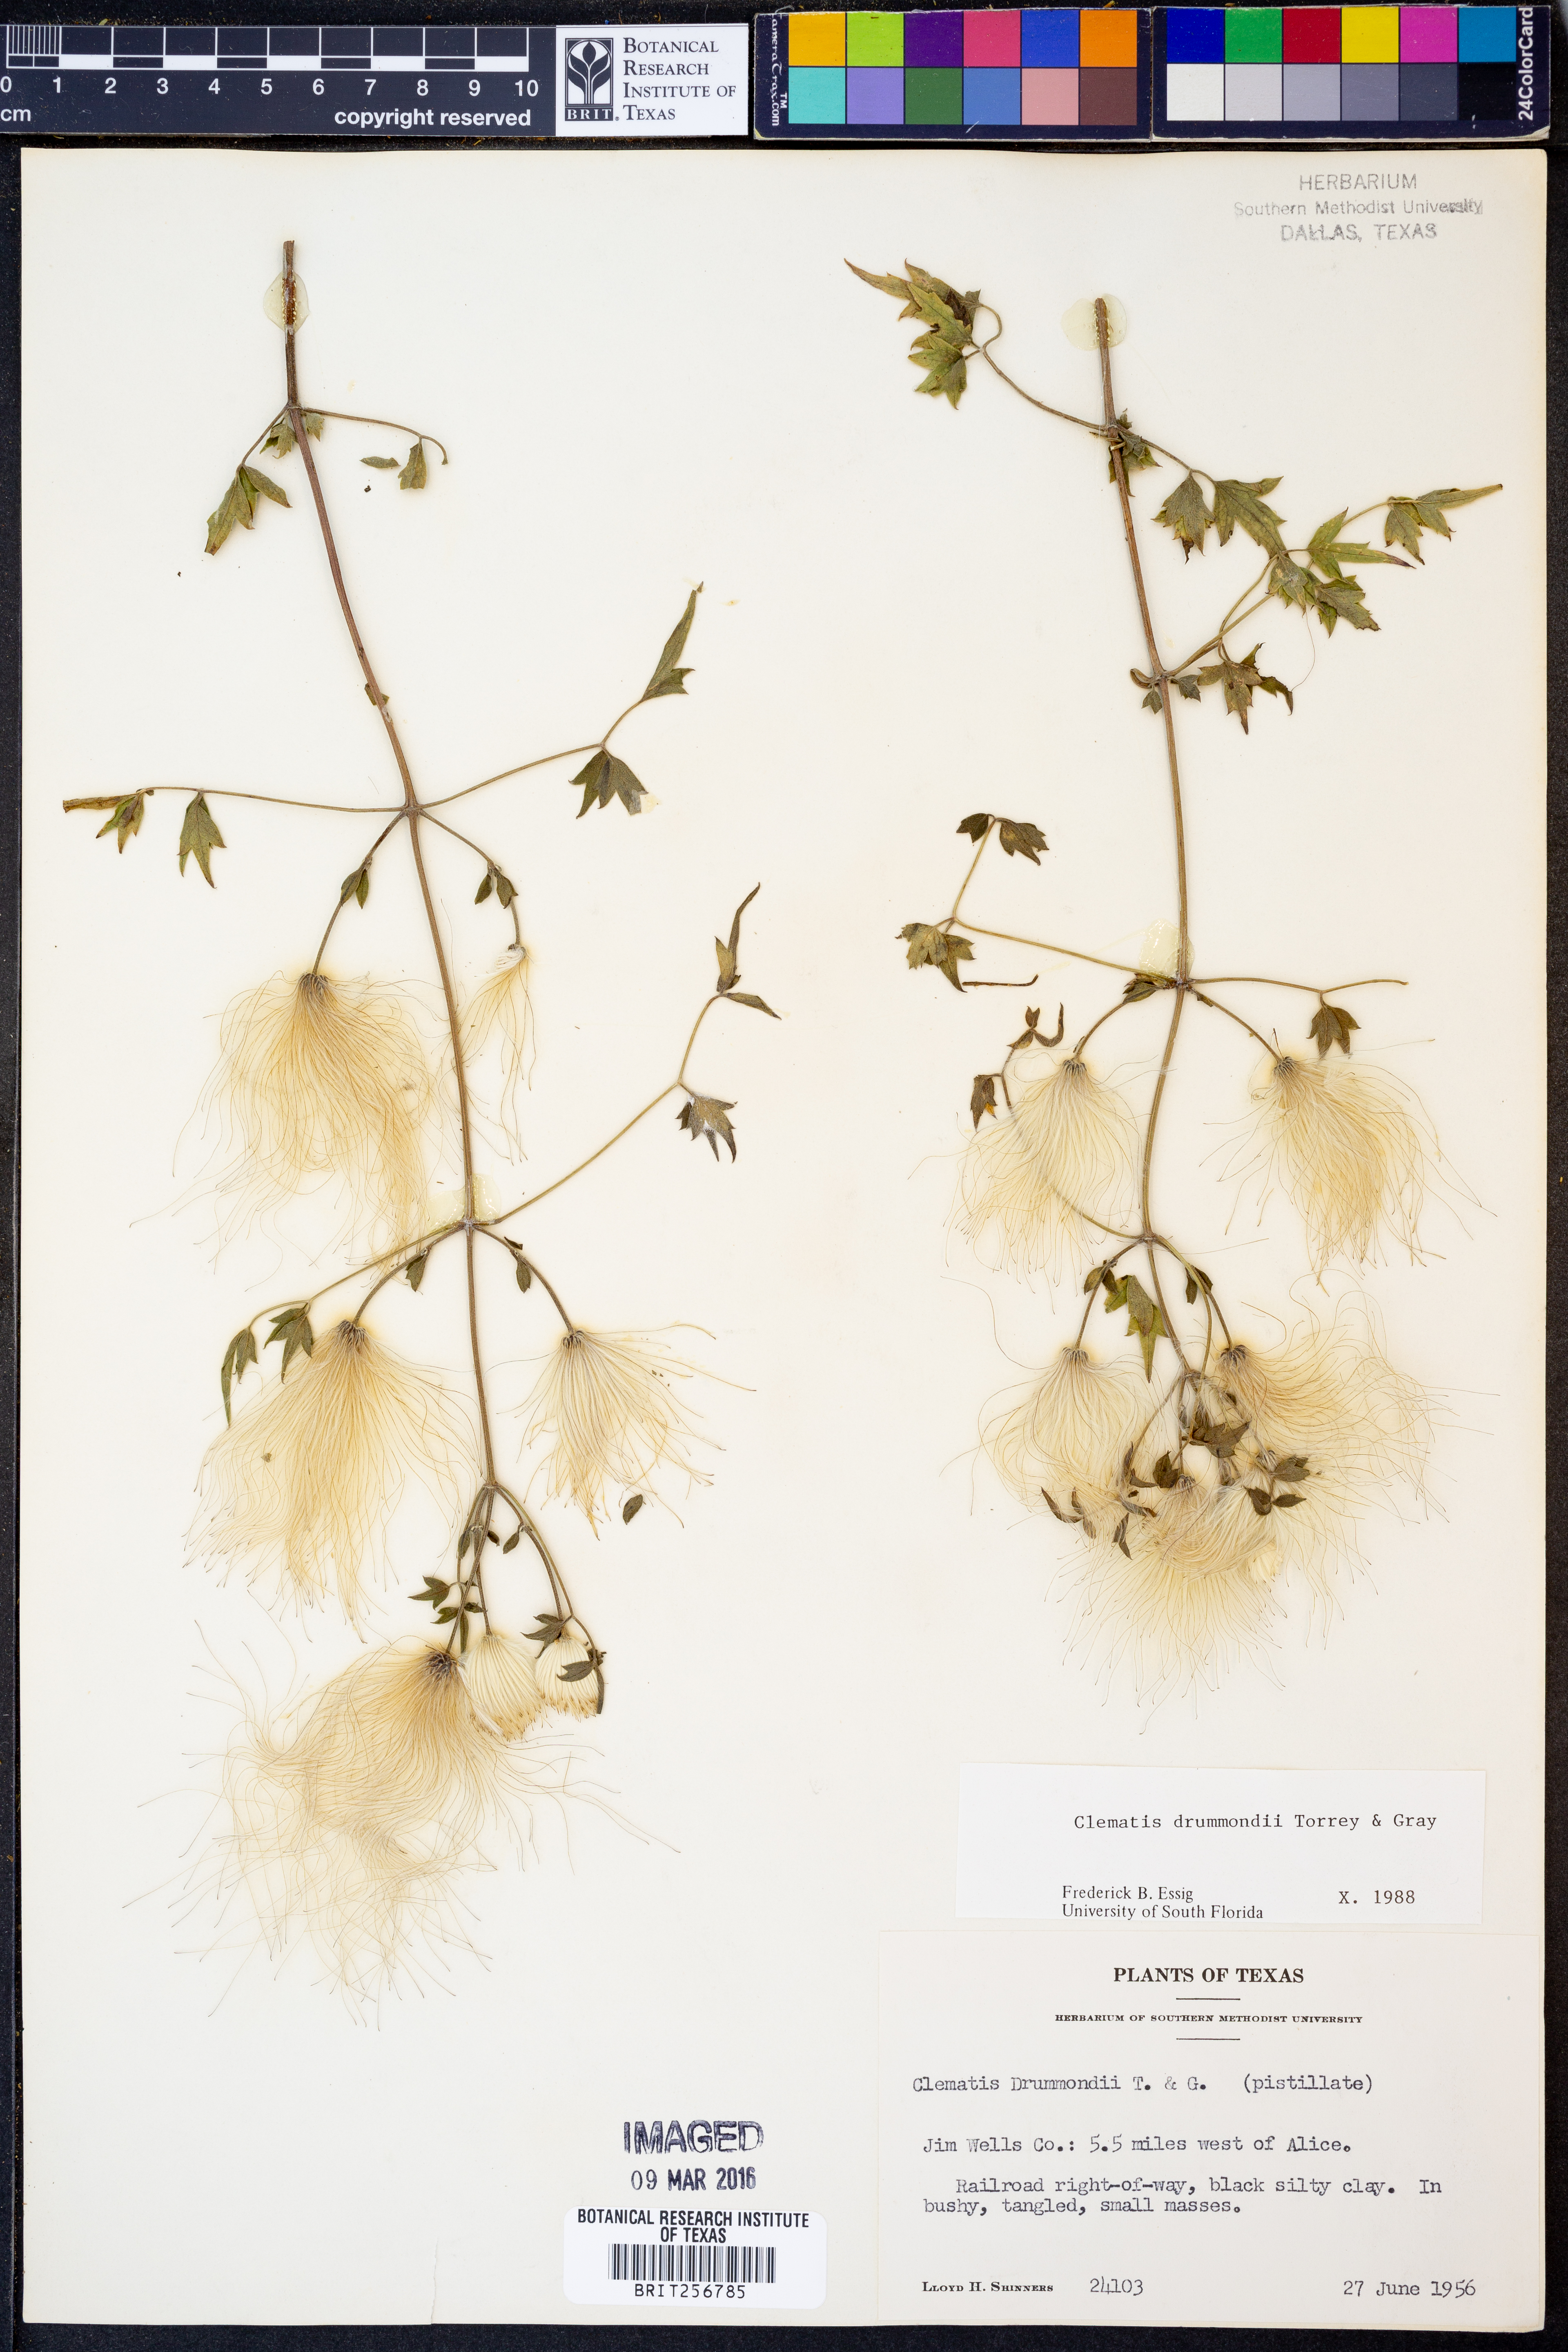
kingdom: Plantae
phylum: Tracheophyta
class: Magnoliopsida
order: Ranunculales
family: Ranunculaceae
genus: Clematis
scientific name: Clematis drummondii
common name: Texas virgin's bower
